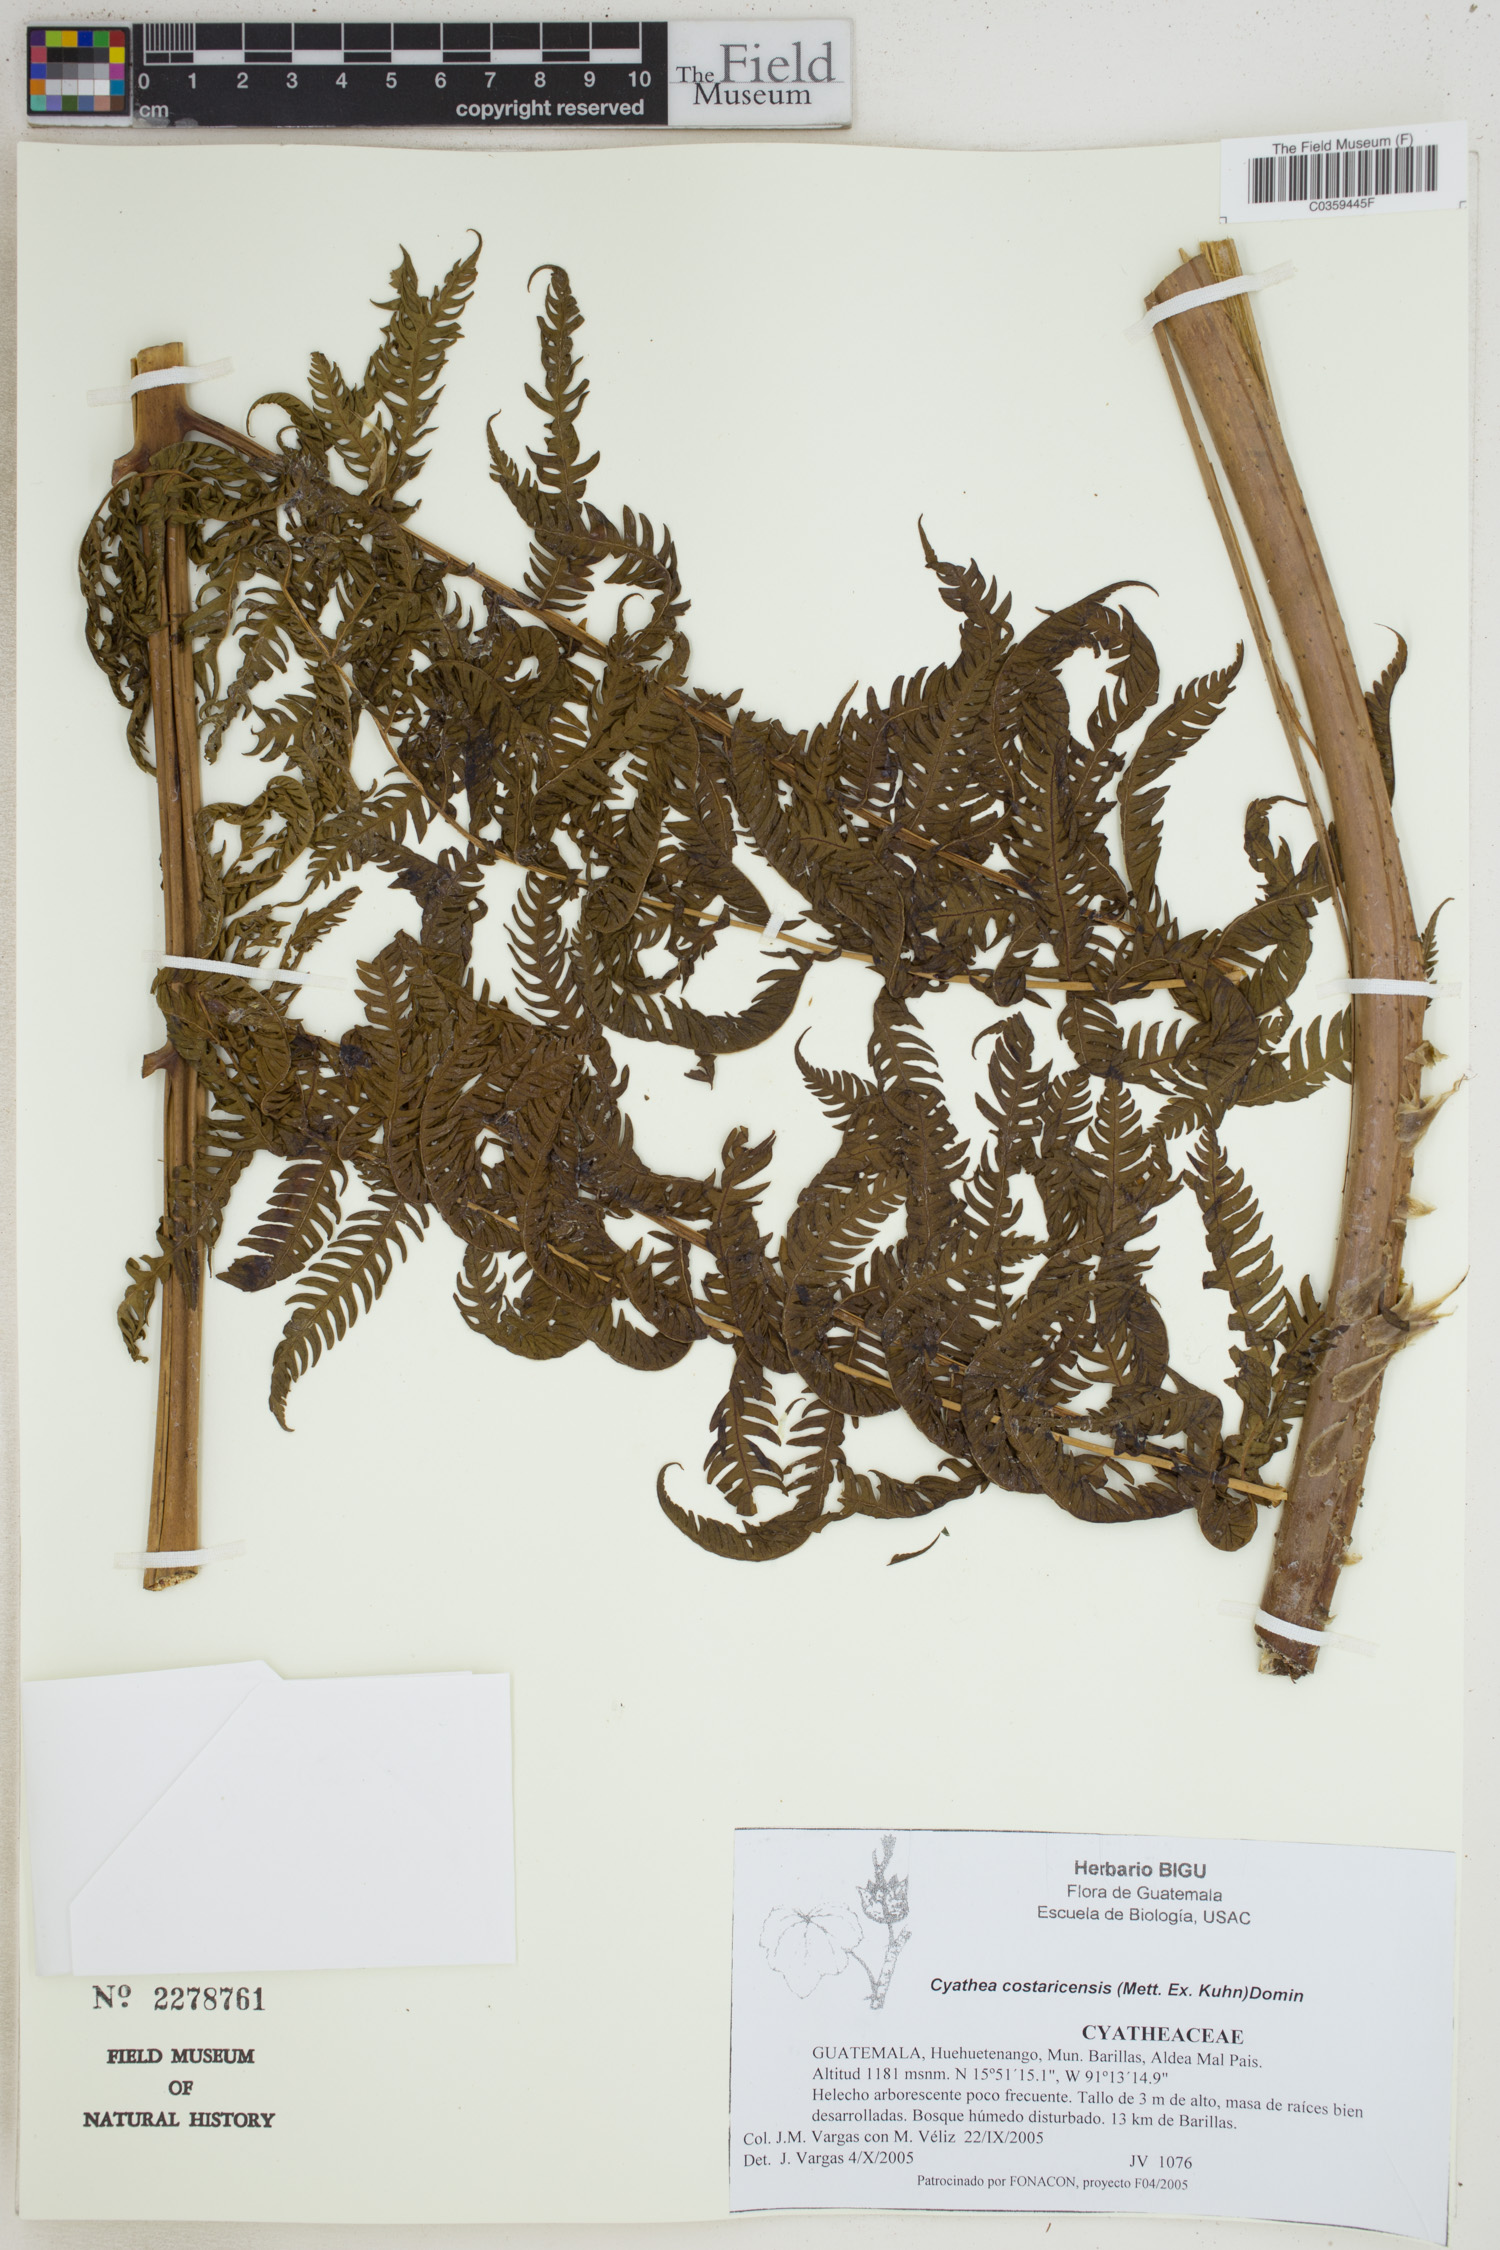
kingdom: Plantae
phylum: Tracheophyta
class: Polypodiopsida
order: Cyatheales
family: Cyatheaceae
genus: Cyathea
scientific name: Cyathea costaricensis
